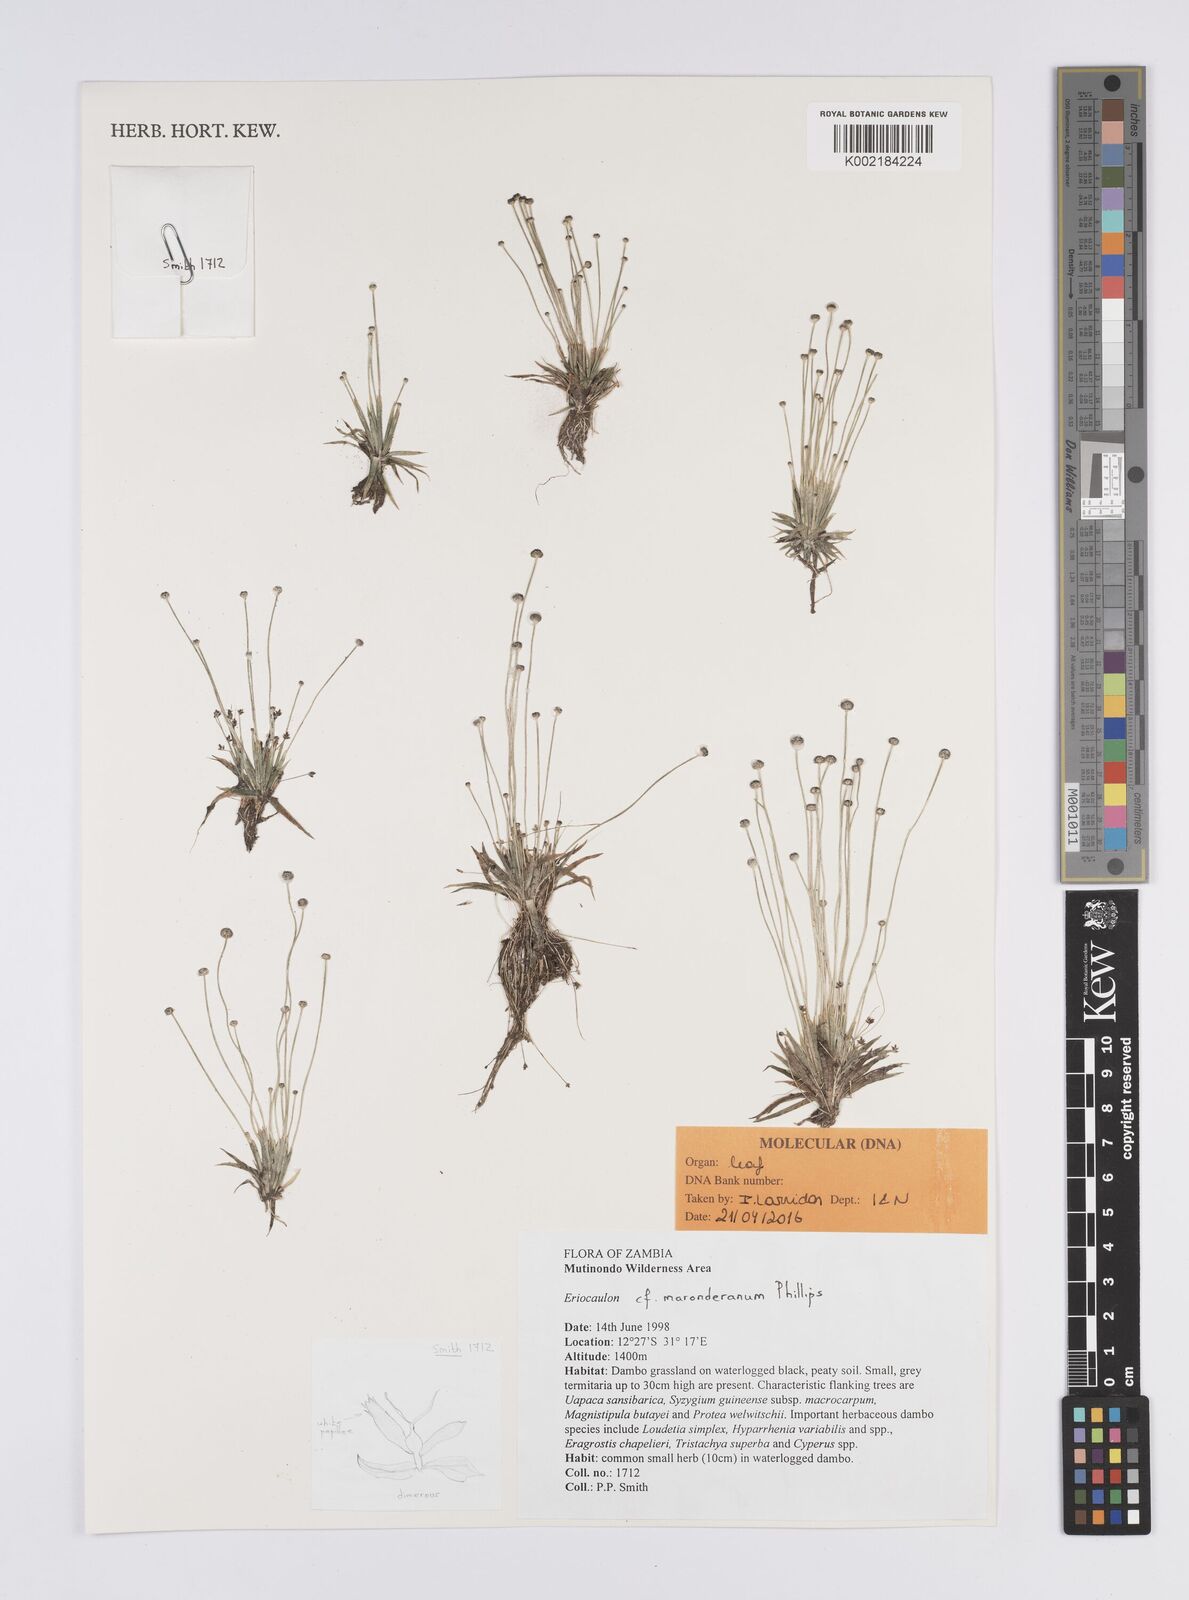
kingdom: Plantae
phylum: Tracheophyta
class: Liliopsida
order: Poales
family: Eriocaulaceae
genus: Eriocaulon
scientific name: Eriocaulon maronderanum
